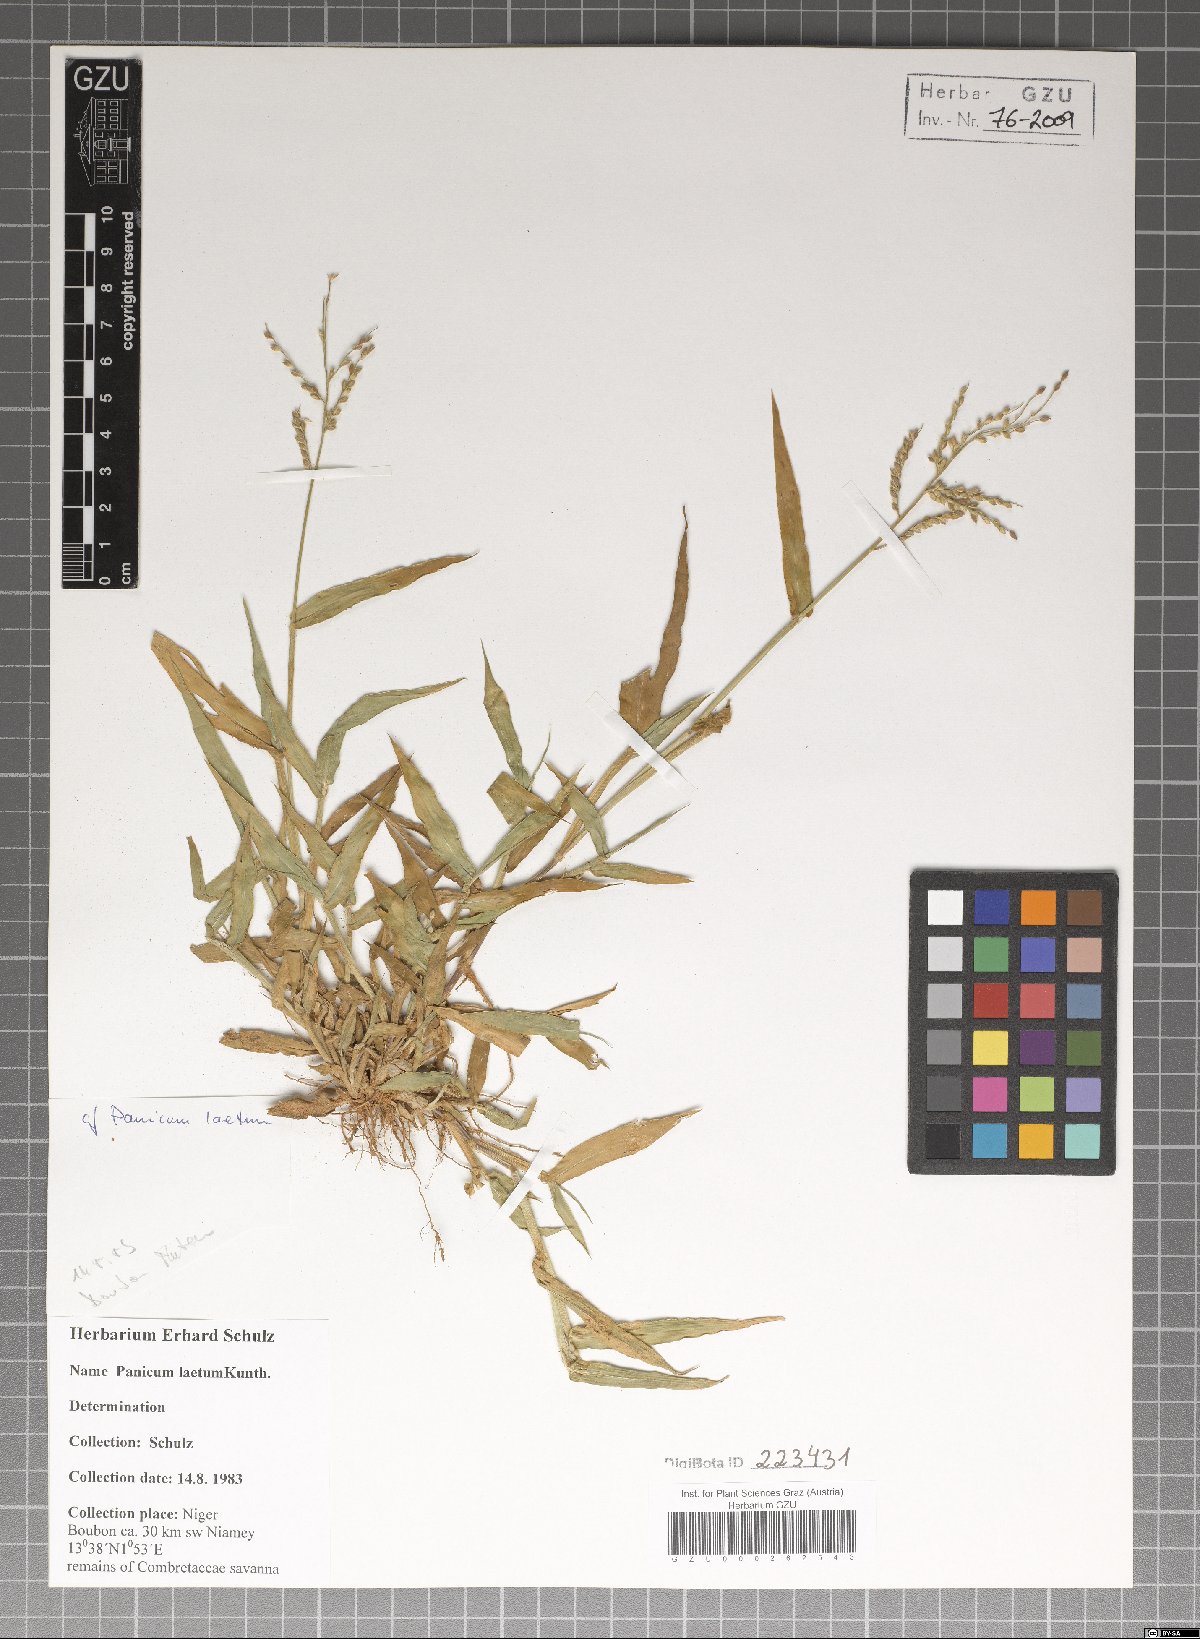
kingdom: Plantae
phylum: Tracheophyta
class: Liliopsida
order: Poales
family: Poaceae
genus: Panicum
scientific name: Panicum laetum
